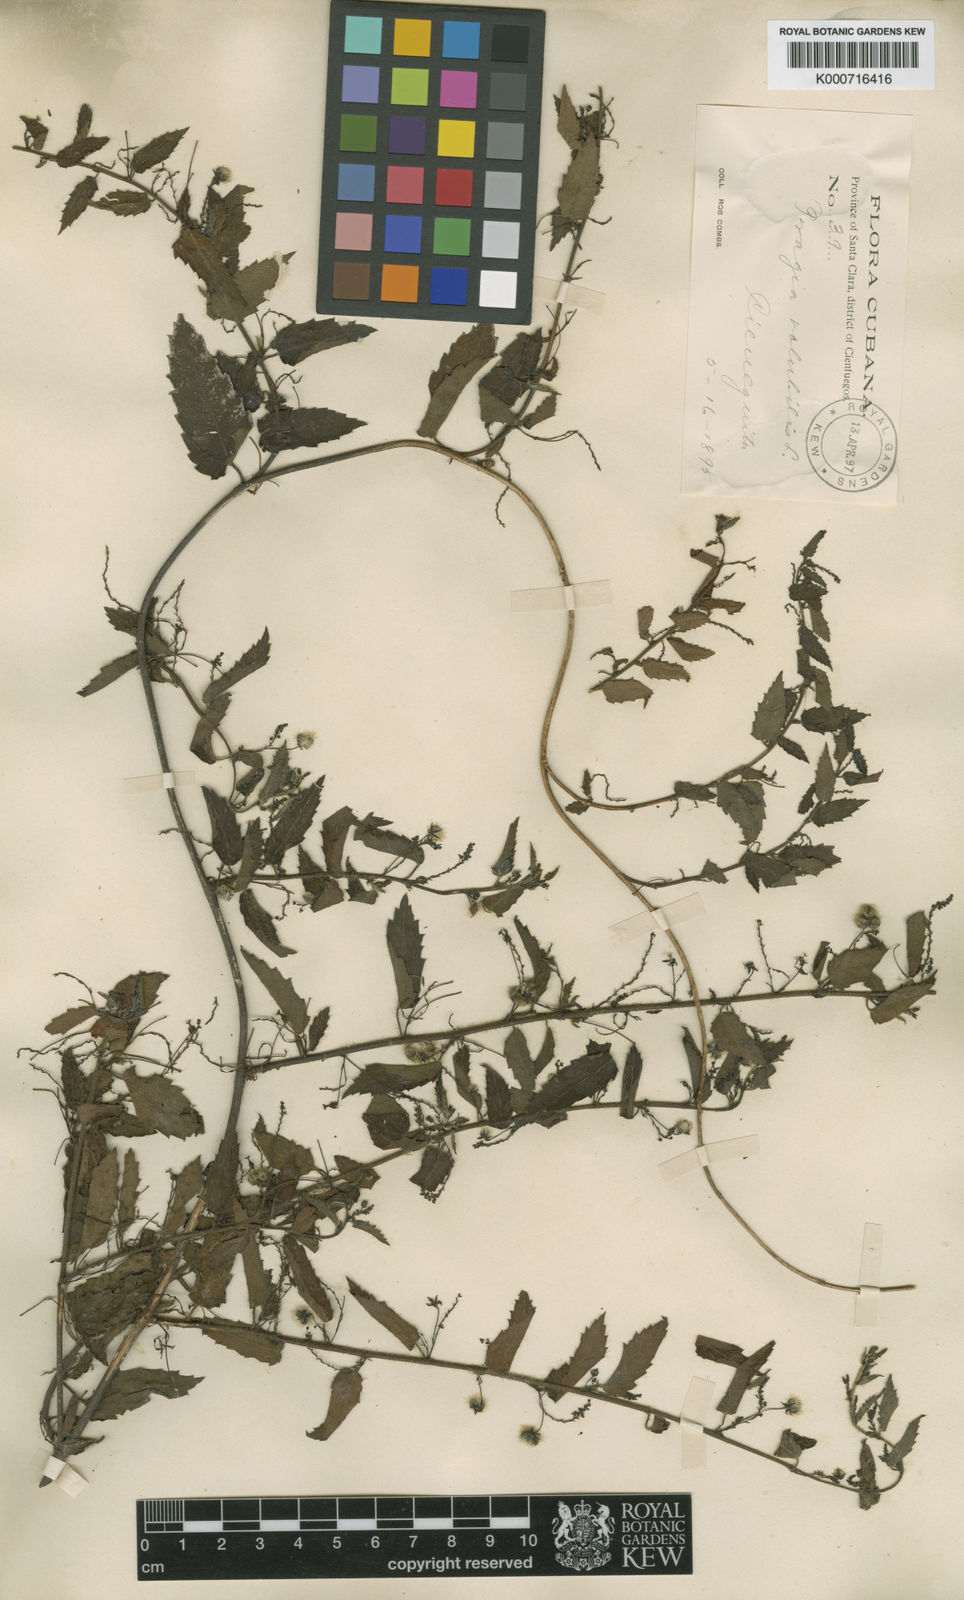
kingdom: Plantae
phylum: Tracheophyta
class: Magnoliopsida
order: Malpighiales
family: Euphorbiaceae
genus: Tragia
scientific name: Tragia volubilis
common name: Twining cow-itch
